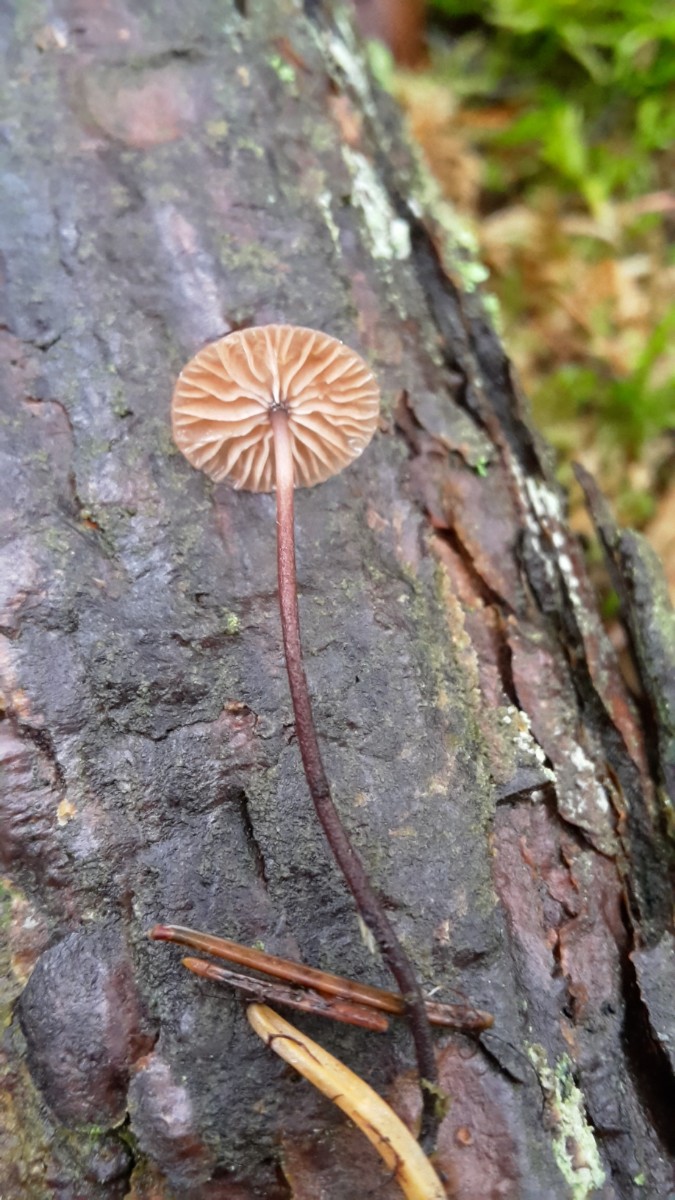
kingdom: Fungi
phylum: Basidiomycota
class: Agaricomycetes
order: Agaricales
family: Omphalotaceae
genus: Paragymnopus
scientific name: Paragymnopus perforans
